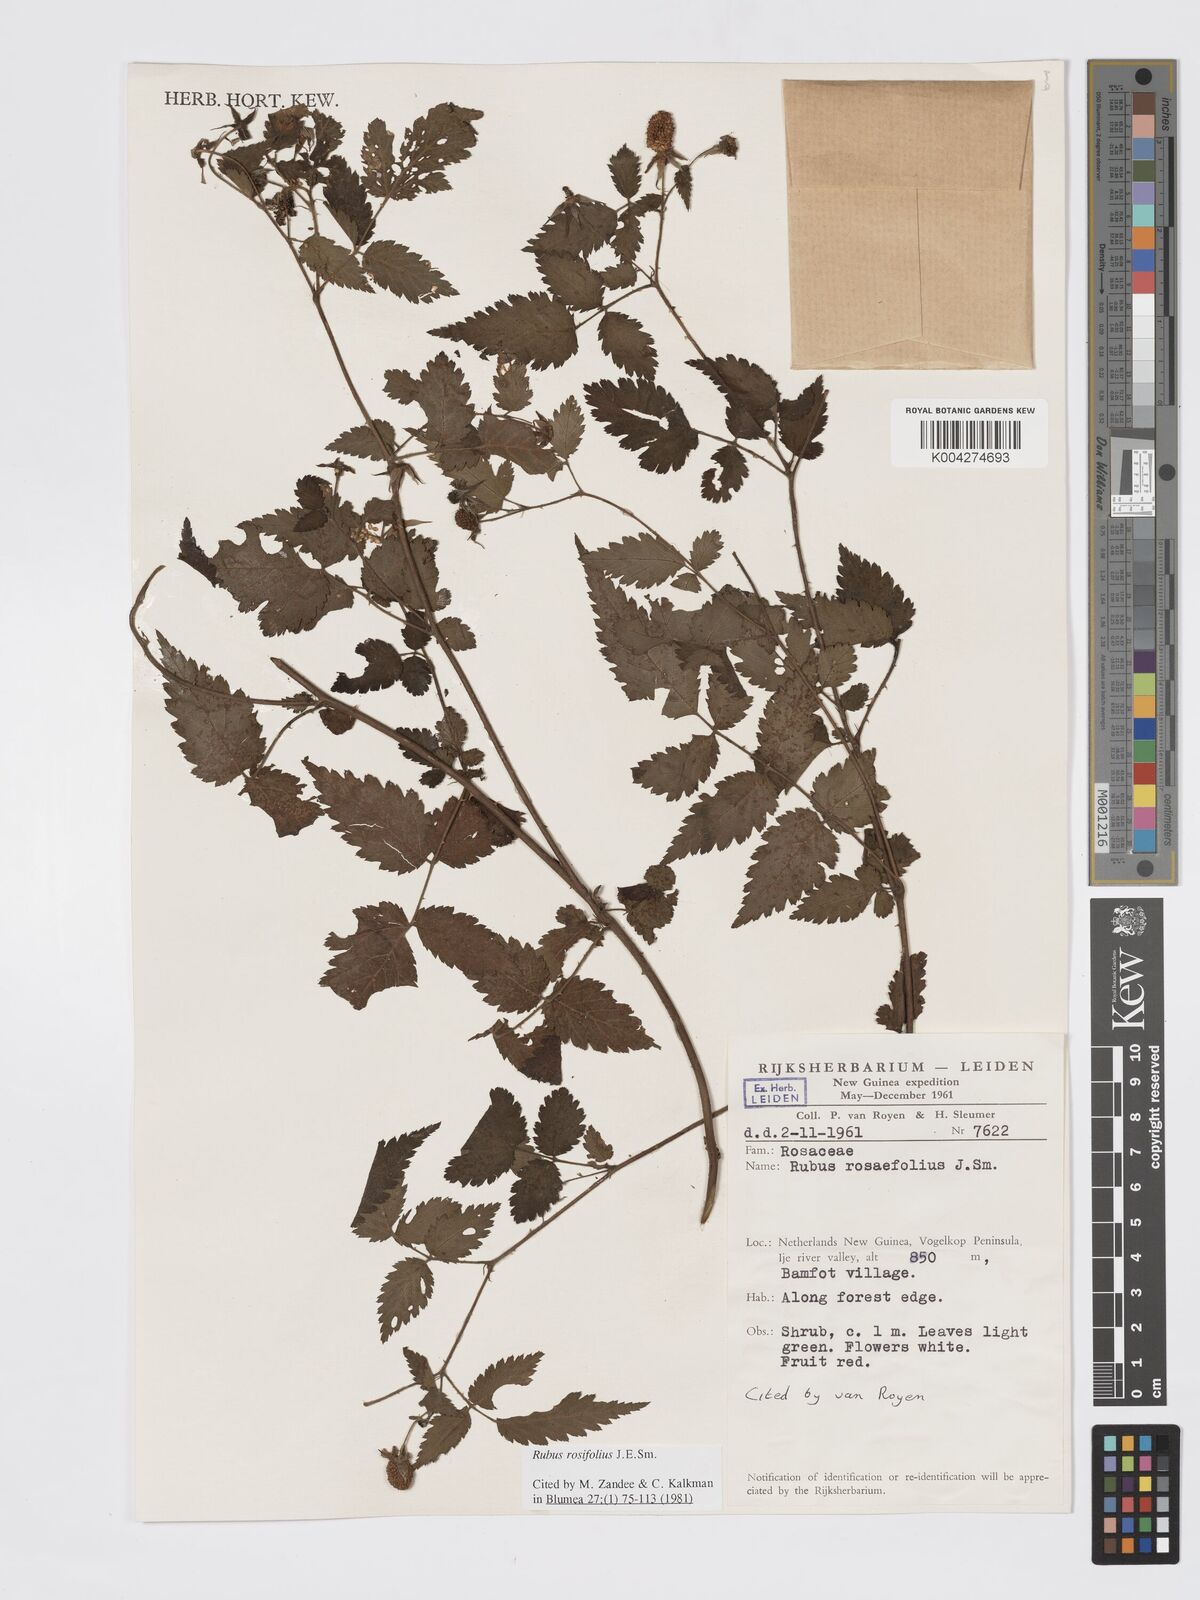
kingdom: Plantae
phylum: Tracheophyta
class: Magnoliopsida
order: Rosales
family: Rosaceae
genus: Rubus
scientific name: Rubus
